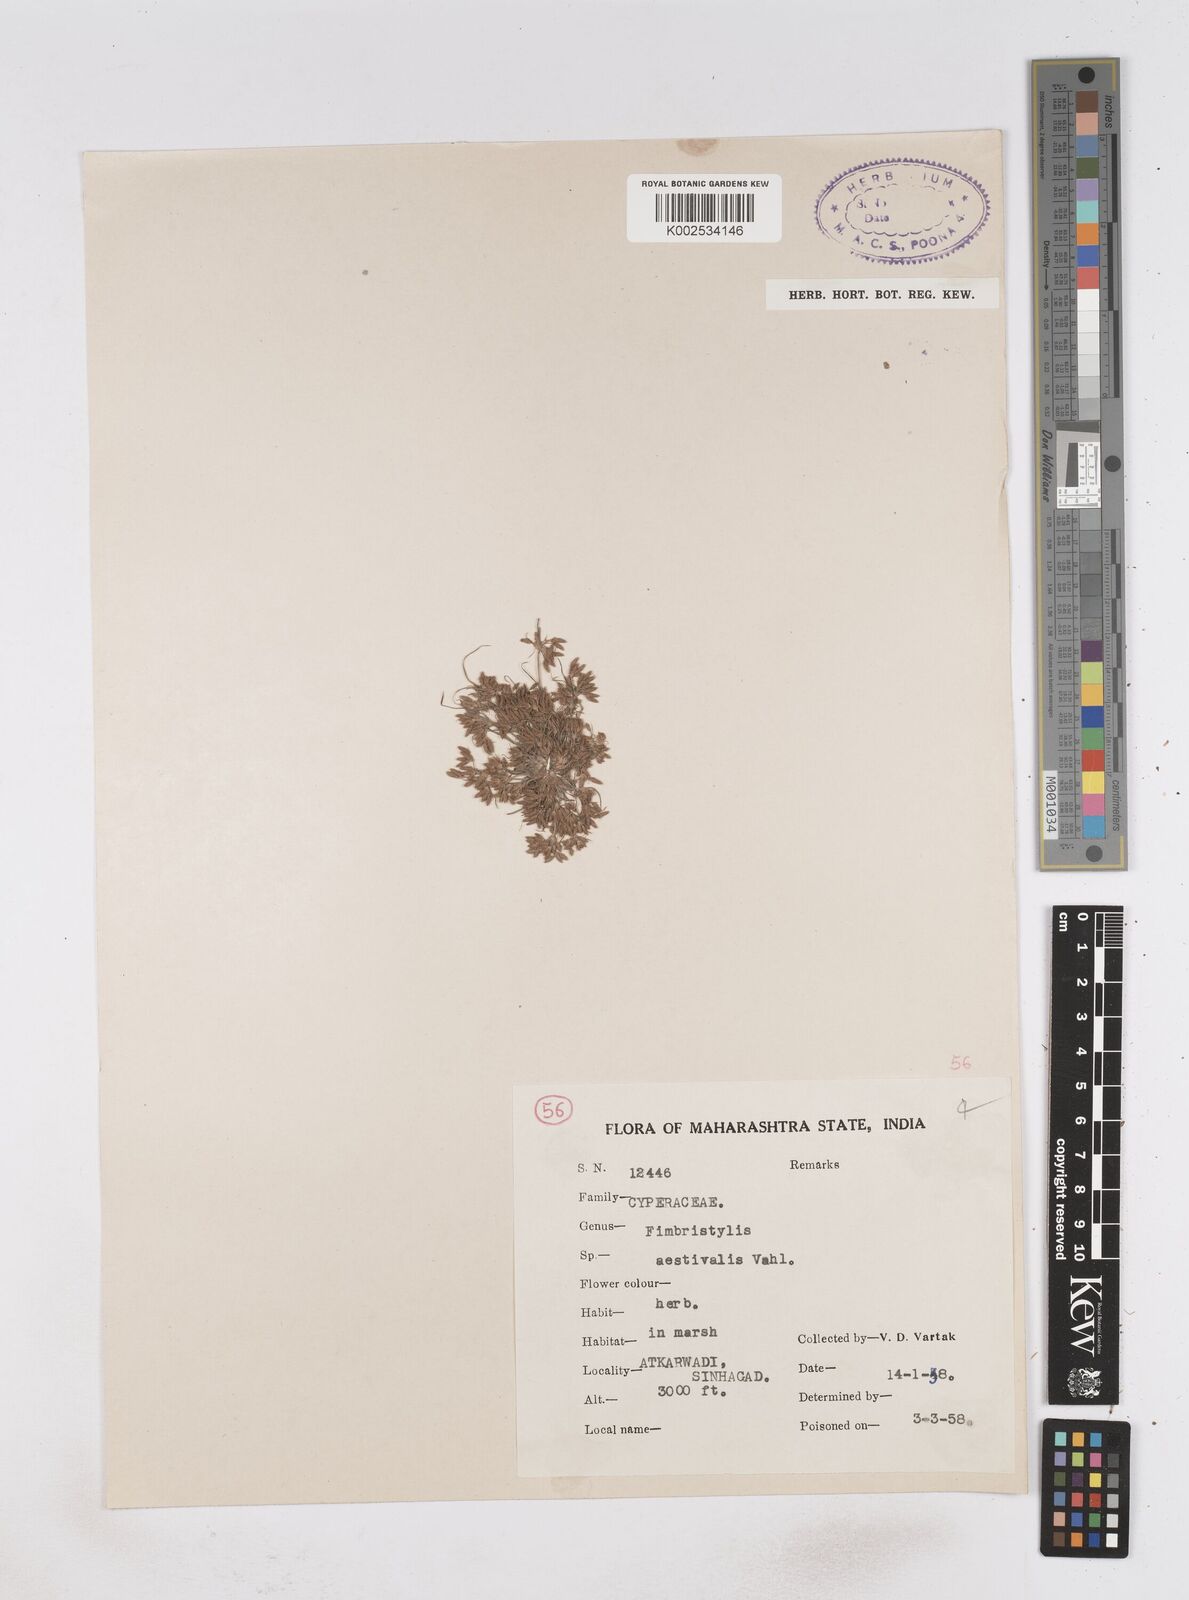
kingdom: Plantae
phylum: Tracheophyta
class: Liliopsida
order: Poales
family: Cyperaceae
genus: Fimbristylis
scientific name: Fimbristylis aestivalis
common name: Summer fimbry
